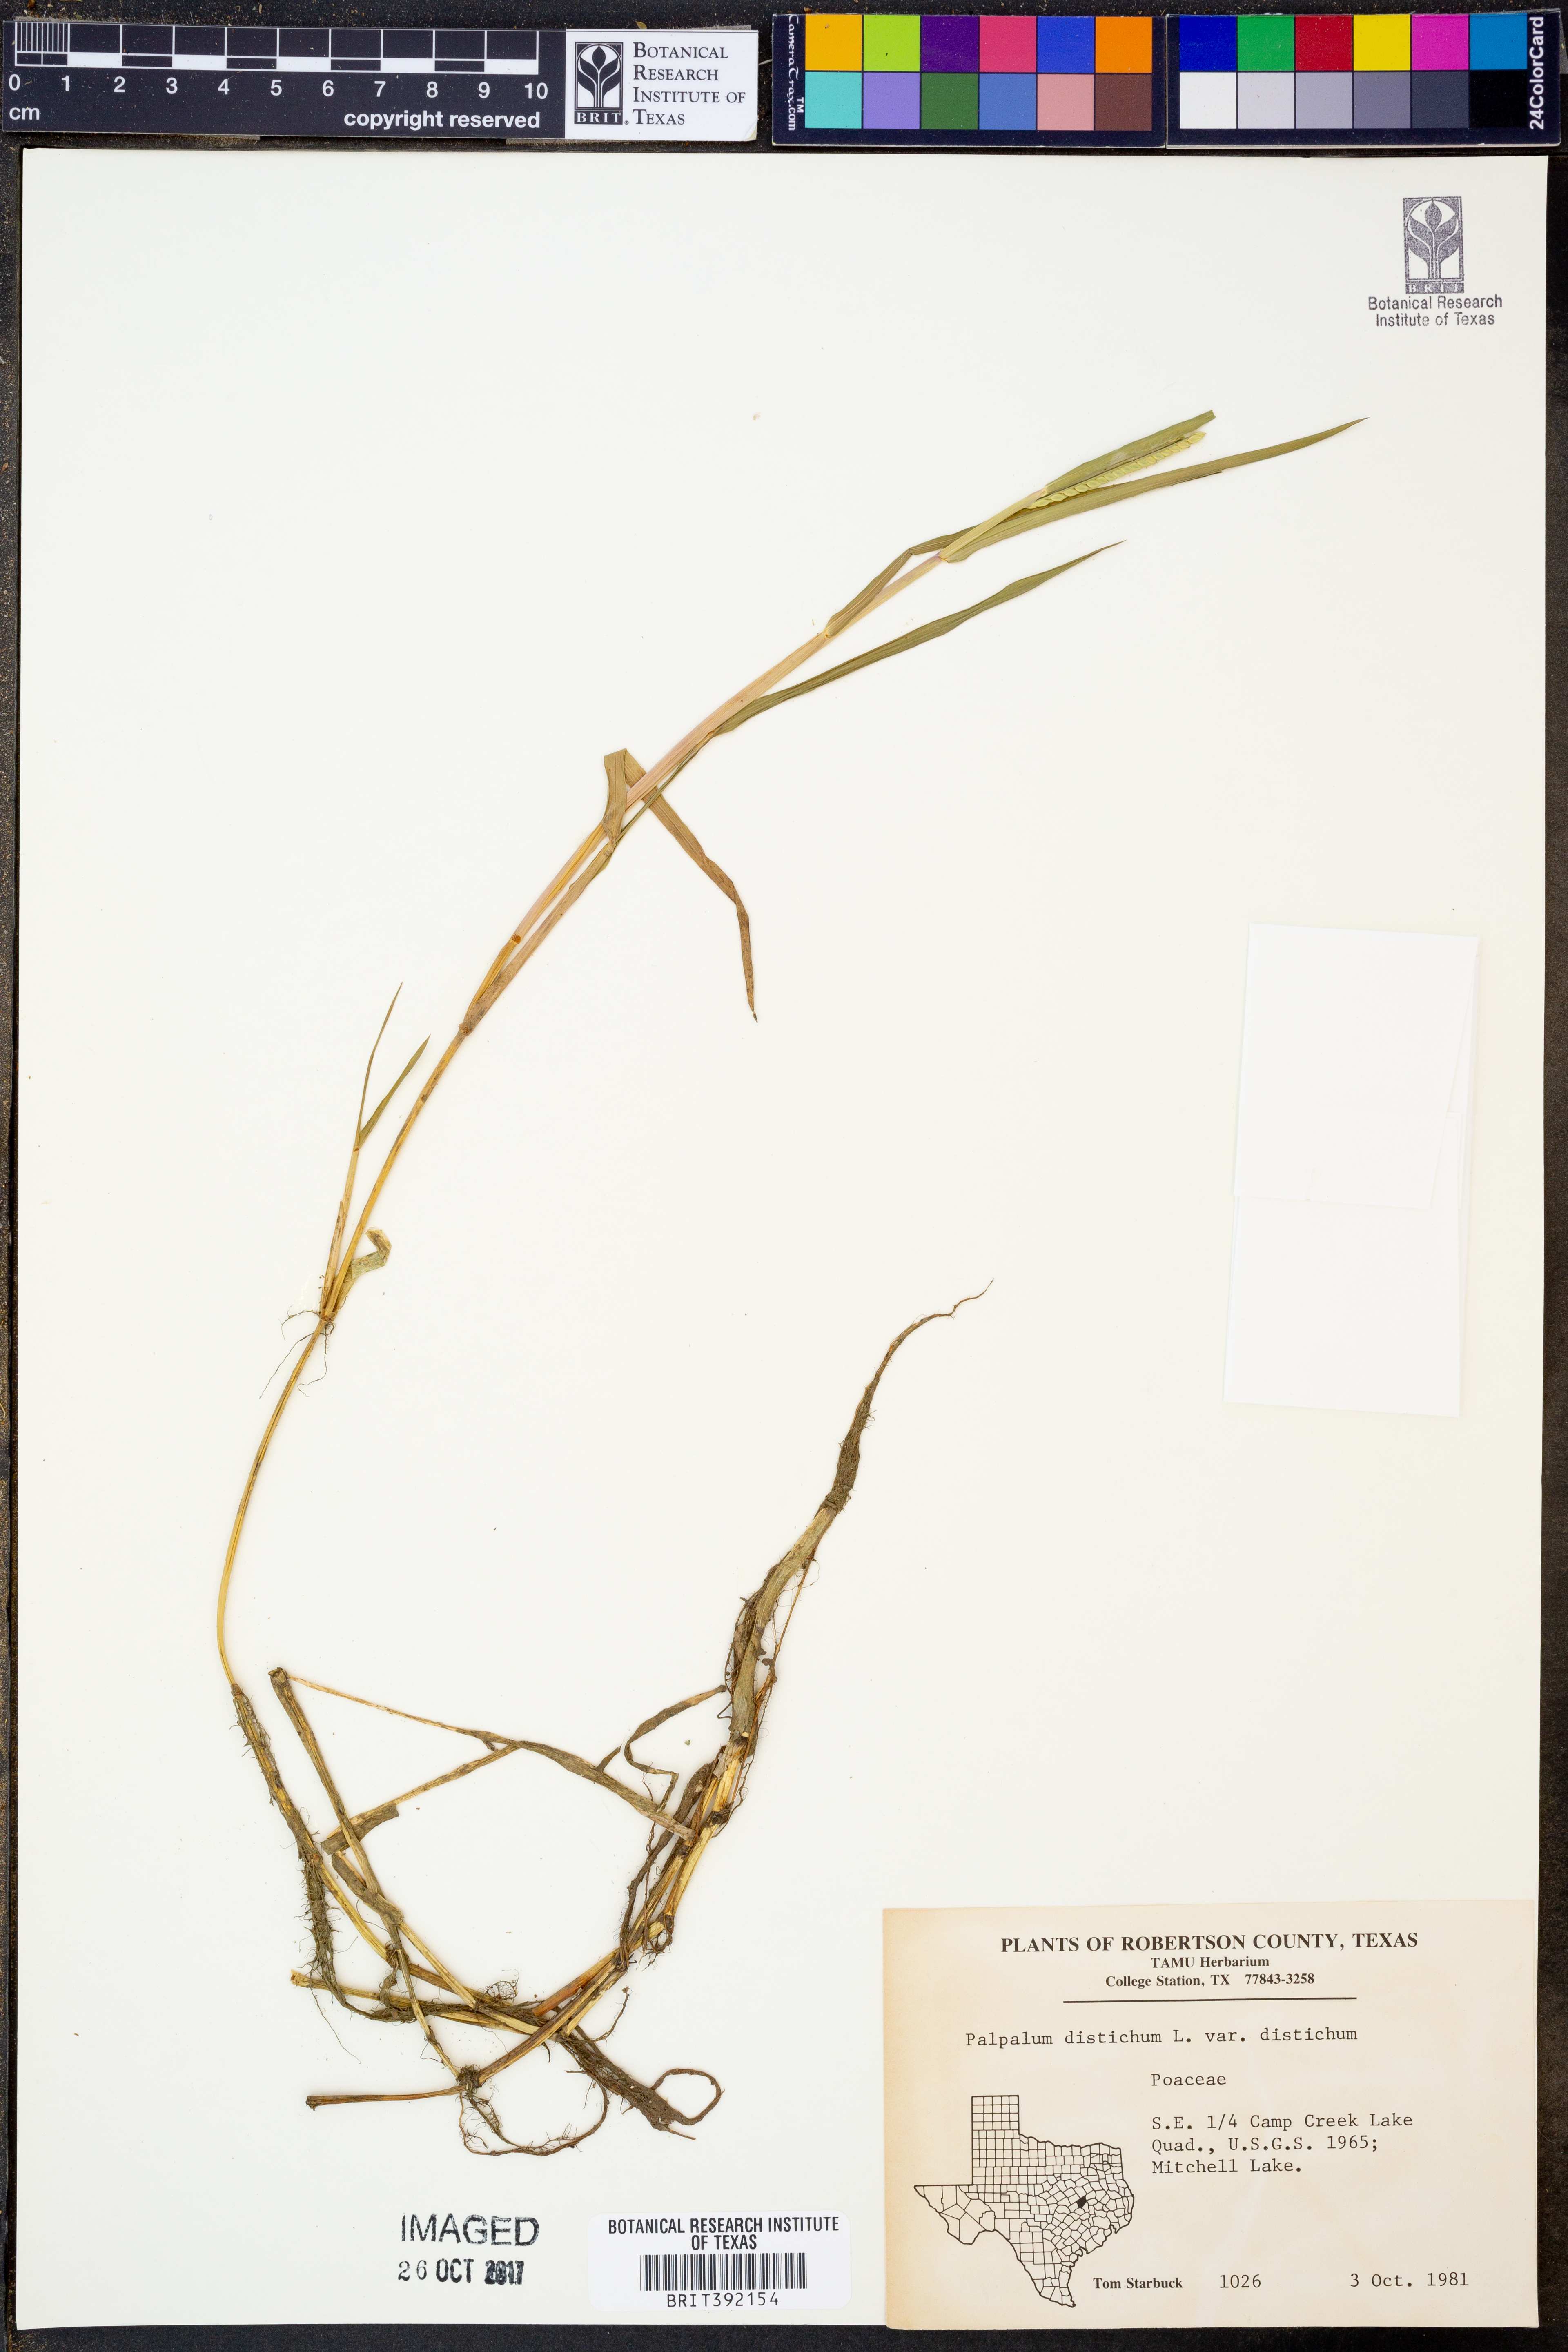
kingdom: Plantae
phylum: Tracheophyta
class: Liliopsida
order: Poales
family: Poaceae
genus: Paspalum
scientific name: Paspalum distichum
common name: Knotgrass
